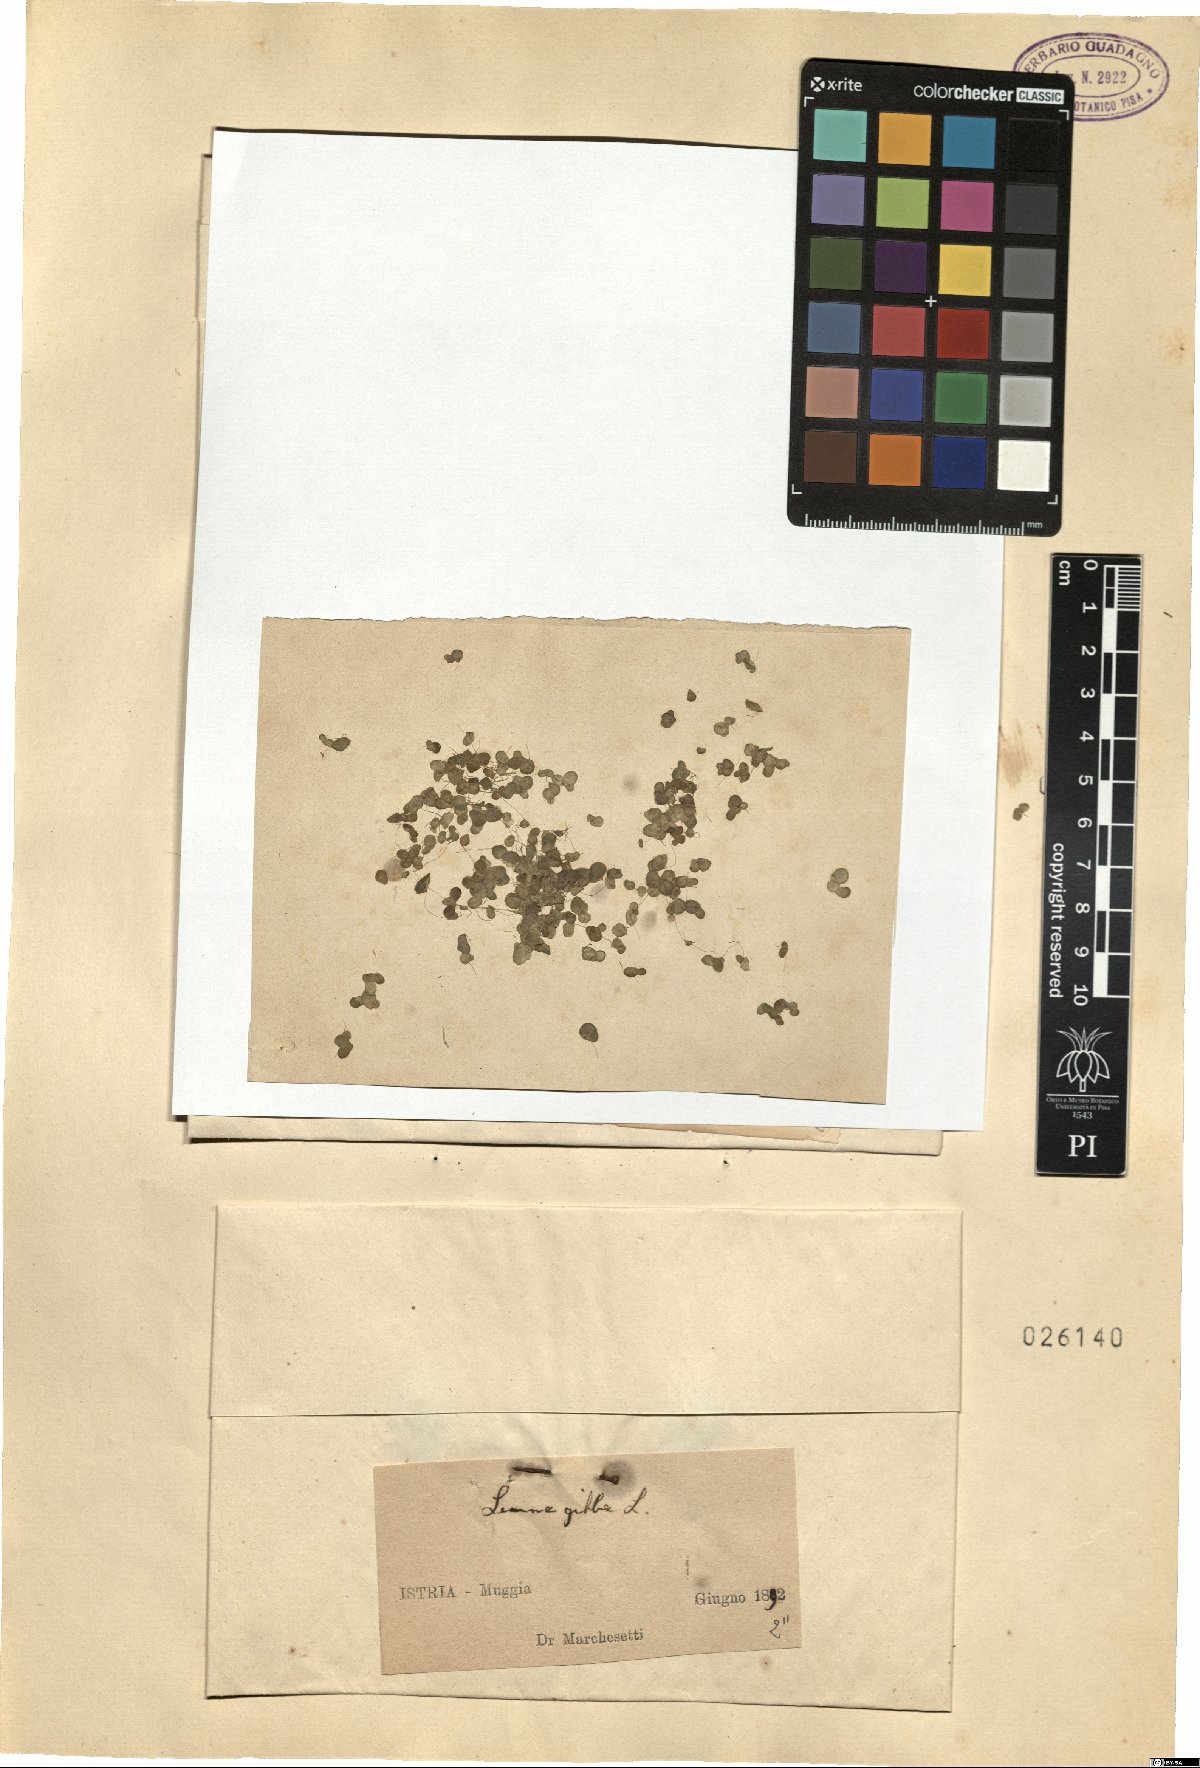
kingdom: Plantae
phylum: Tracheophyta
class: Liliopsida
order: Alismatales
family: Araceae
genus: Lemna
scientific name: Lemna gibba
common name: Fat duckweed
